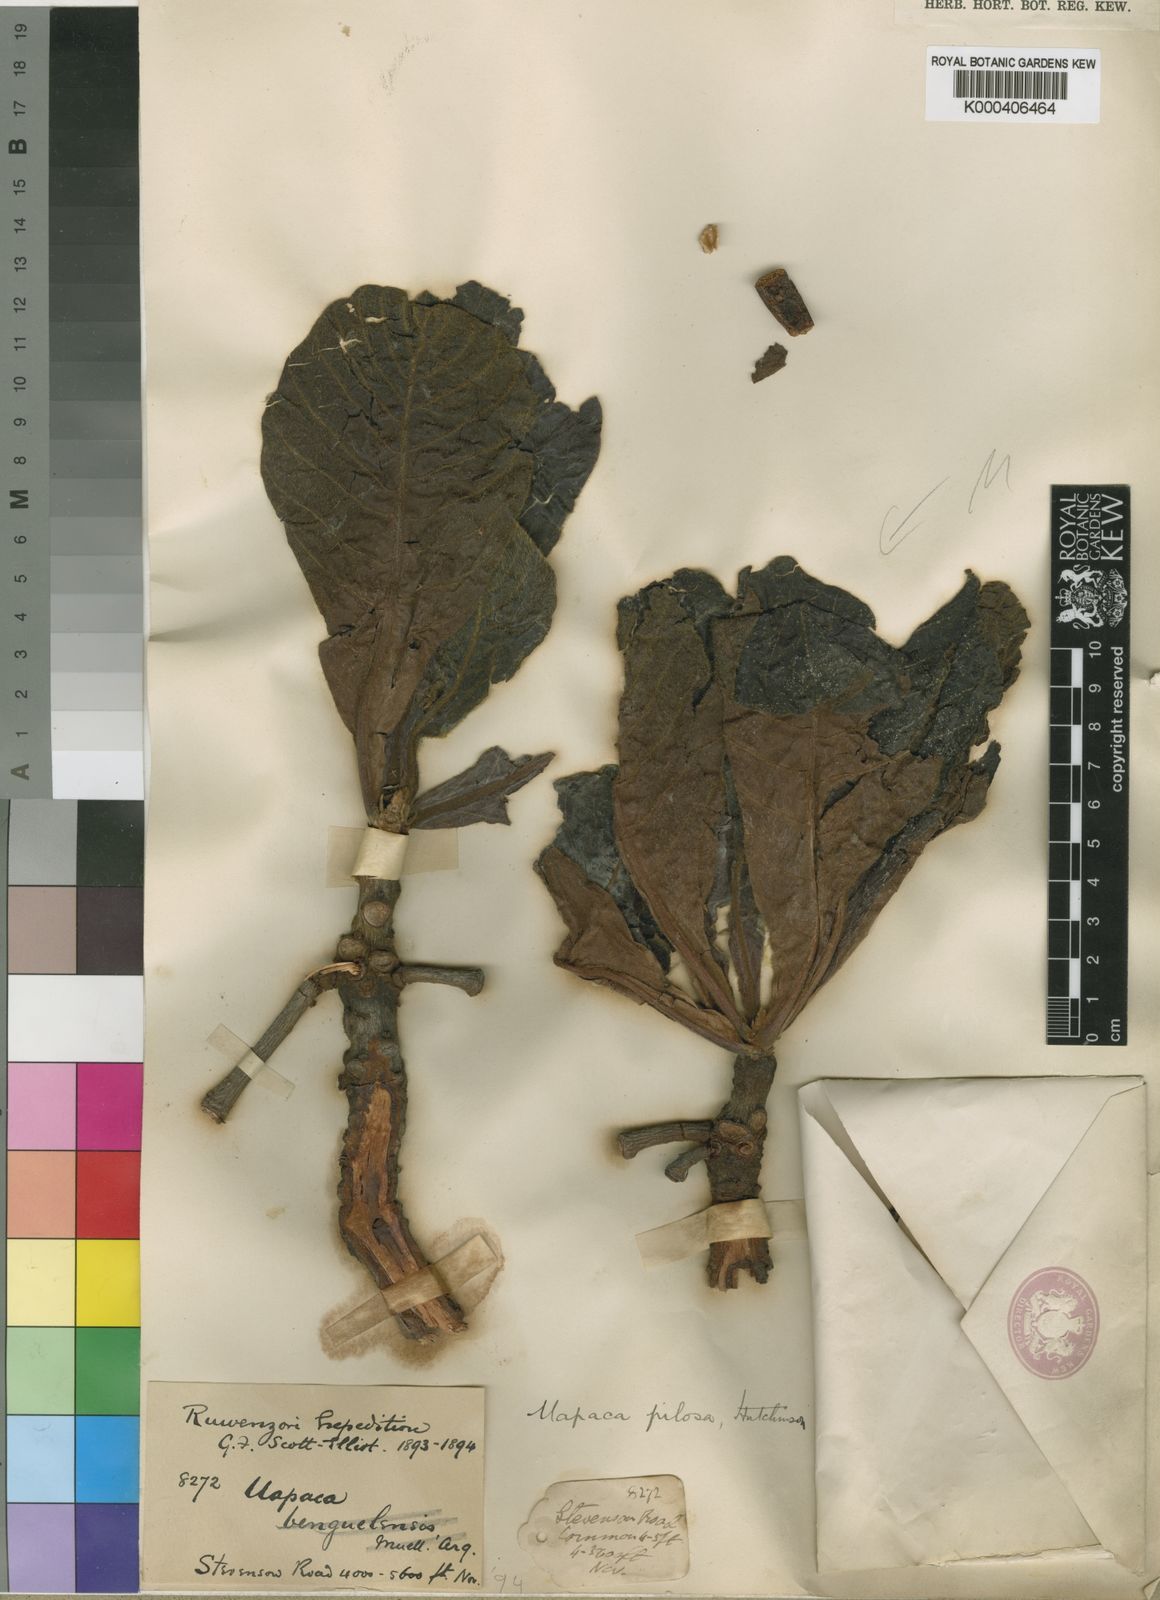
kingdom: Plantae
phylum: Tracheophyta
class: Magnoliopsida
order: Malpighiales
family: Phyllanthaceae
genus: Uapaca
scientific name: Uapaca pilosa
